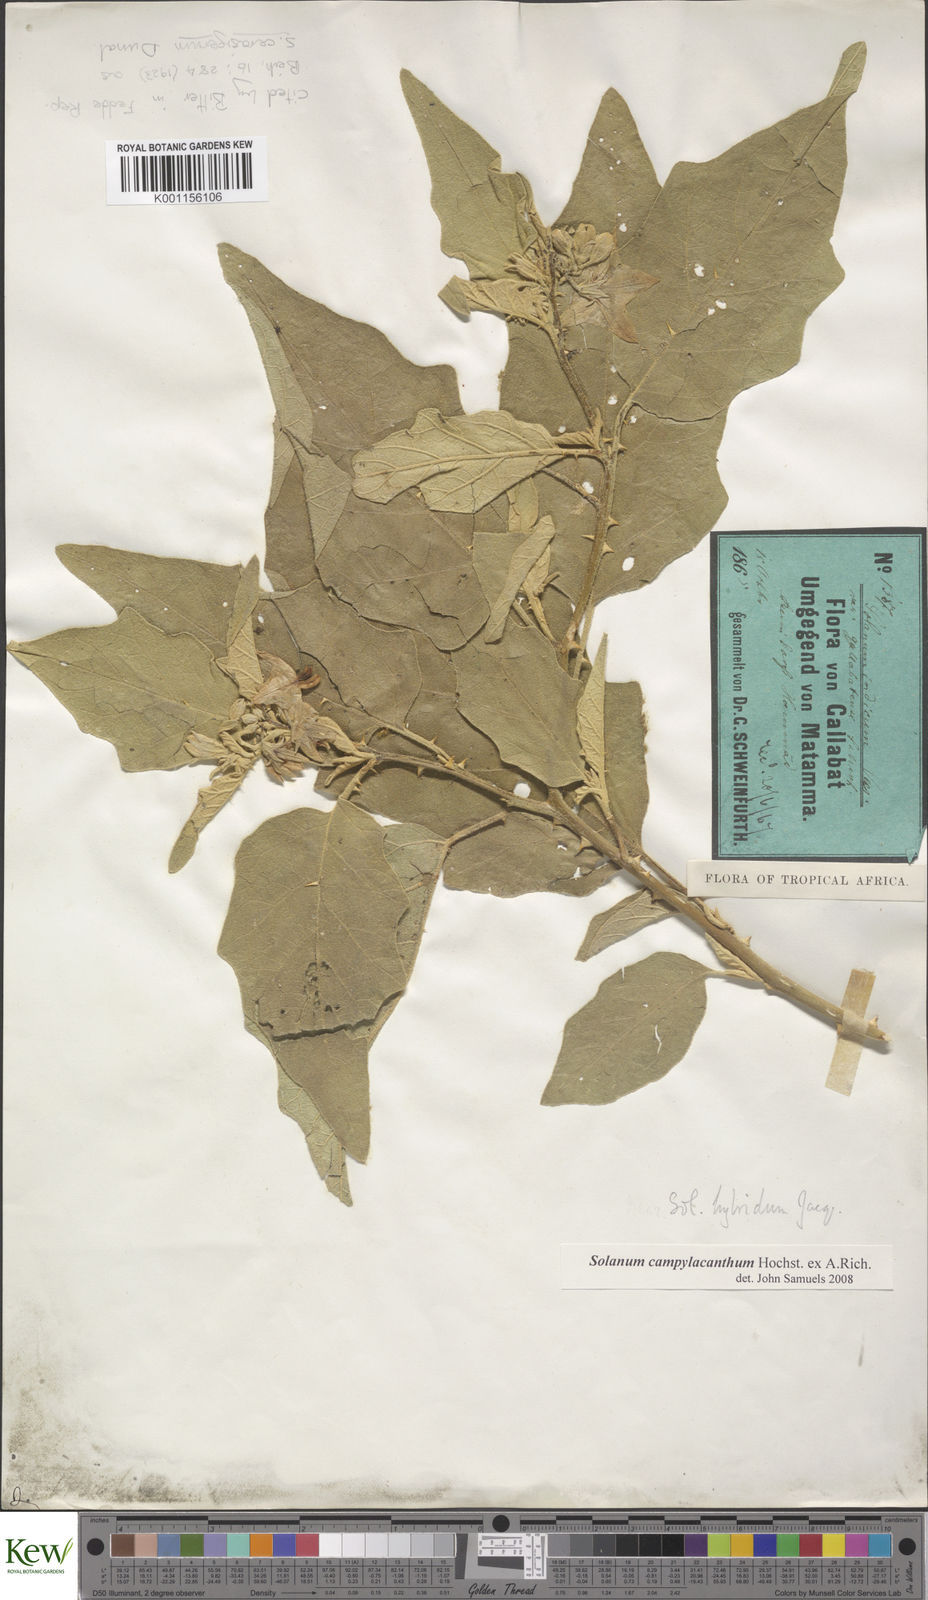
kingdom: Plantae
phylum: Tracheophyta
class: Magnoliopsida
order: Solanales
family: Solanaceae
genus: Solanum
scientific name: Solanum campylacanthum
